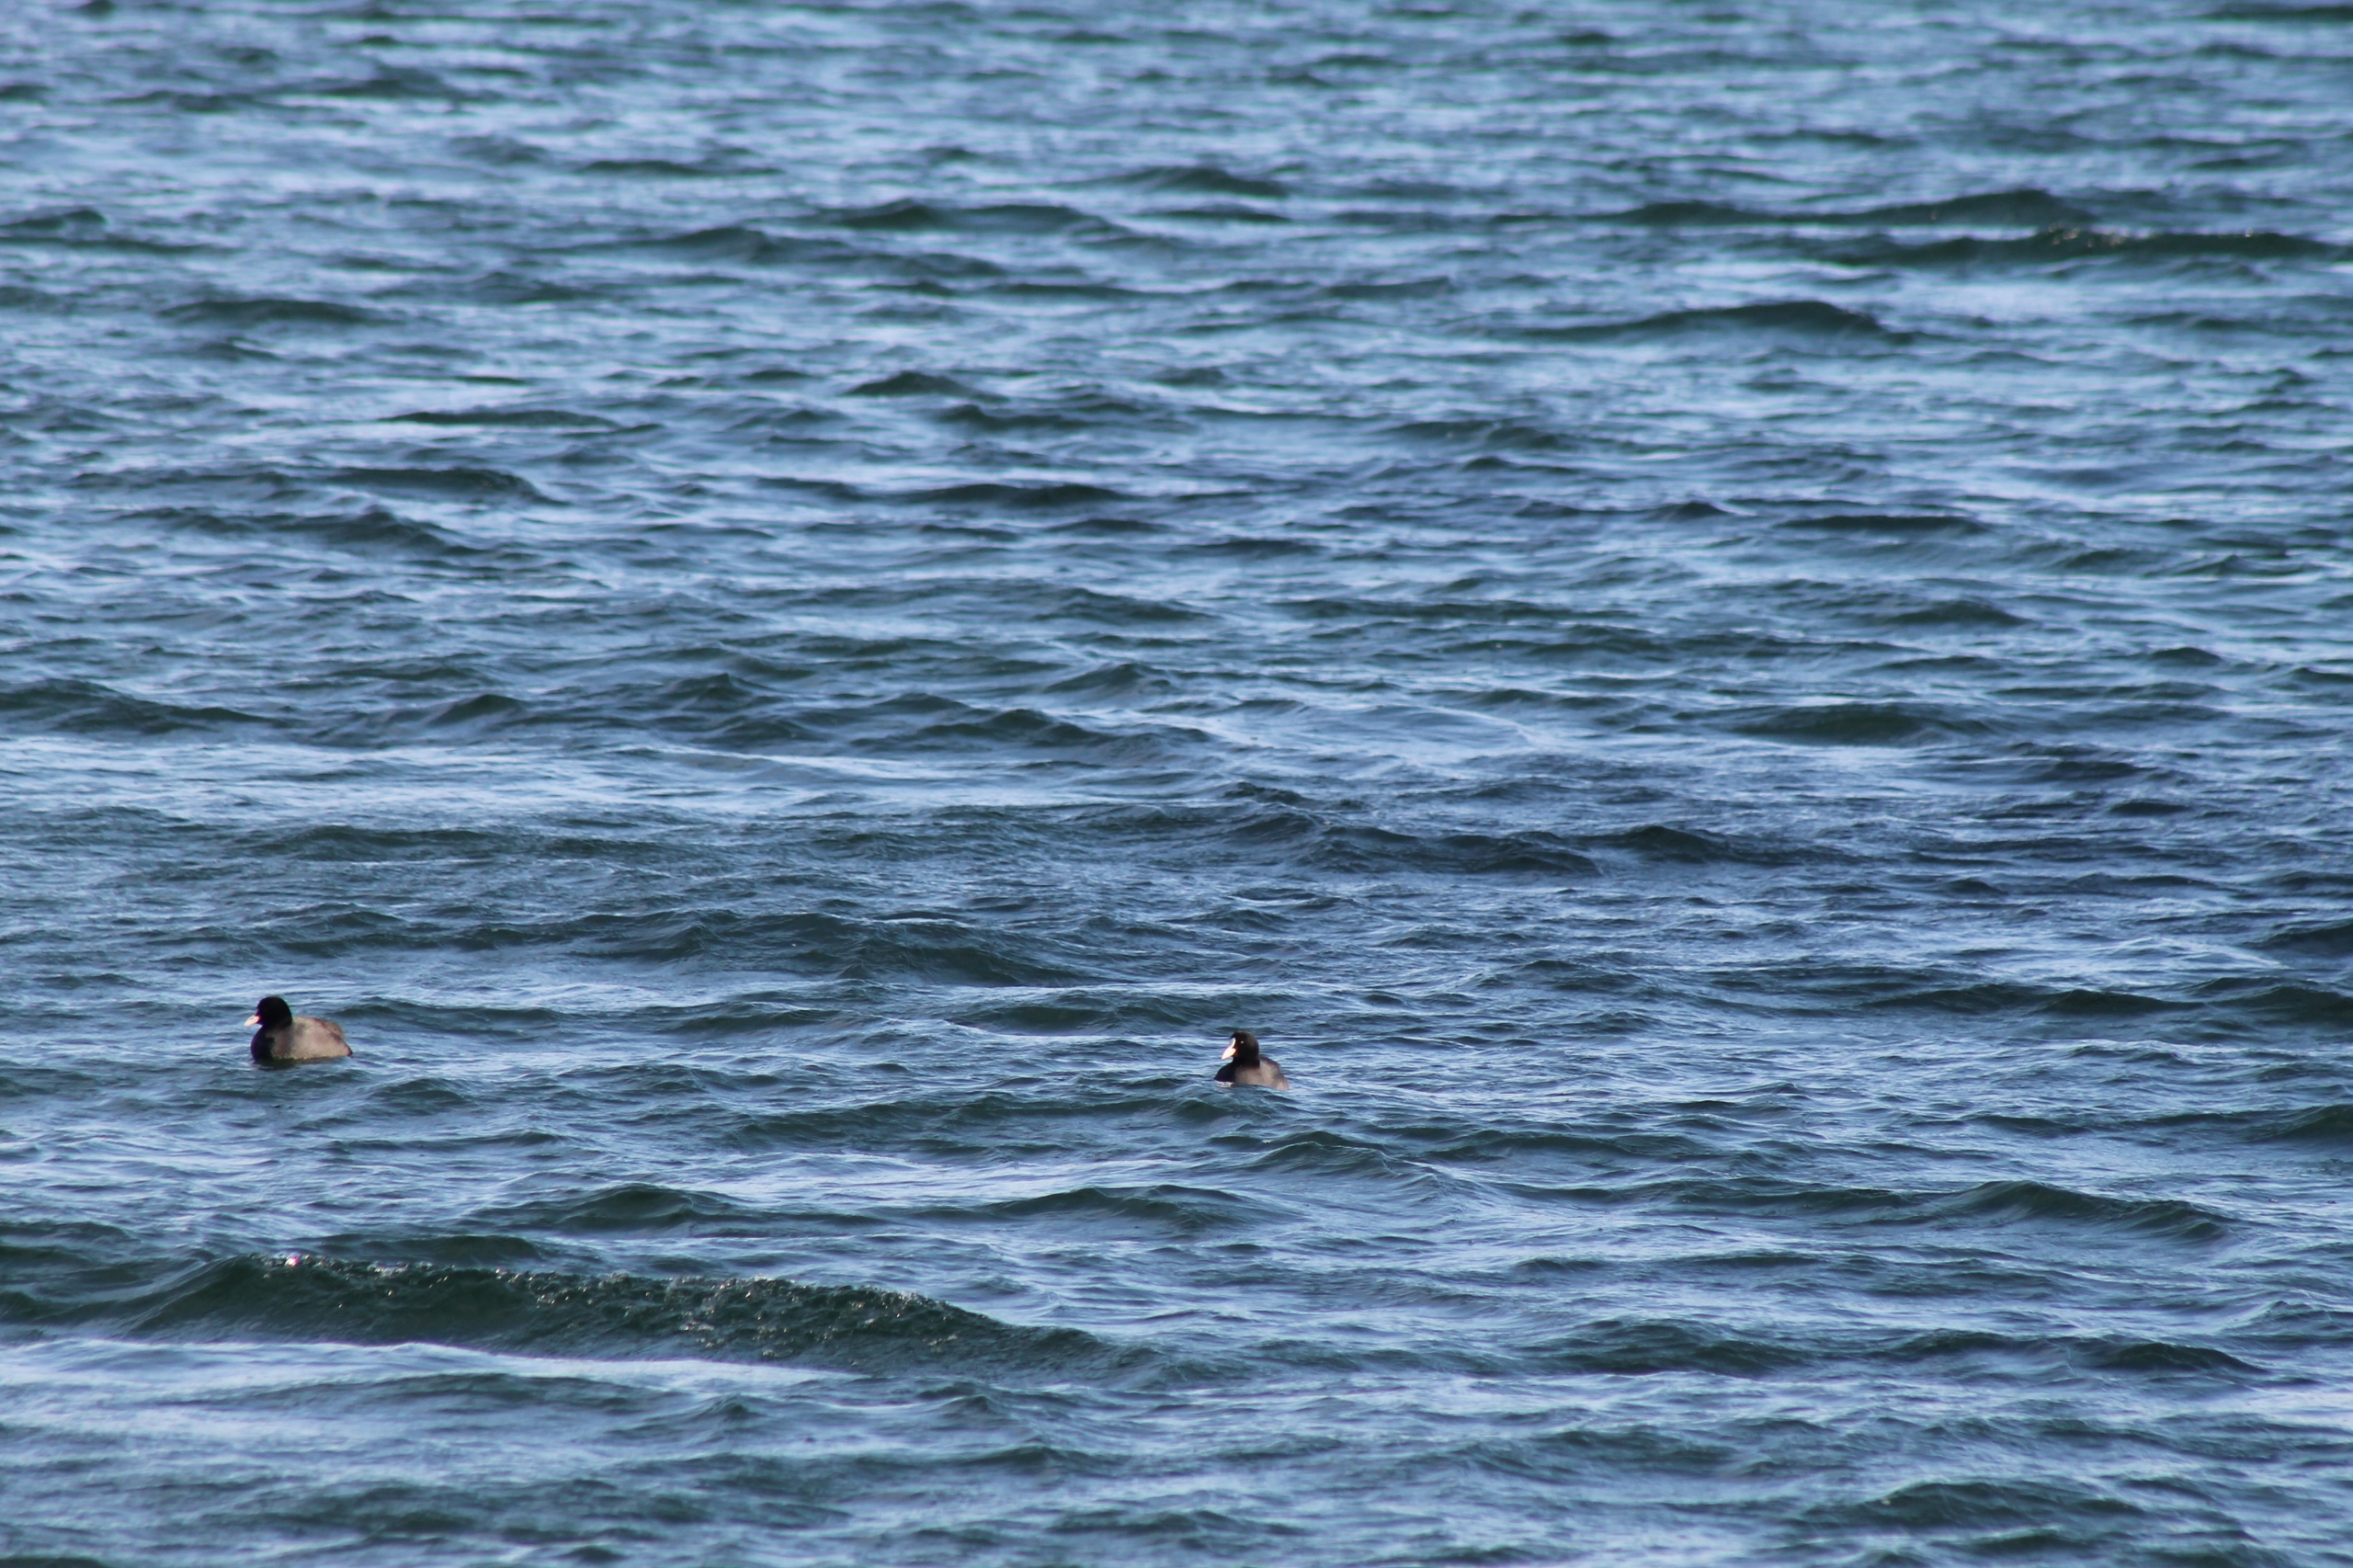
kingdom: Animalia
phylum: Chordata
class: Aves
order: Gruiformes
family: Rallidae
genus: Fulica
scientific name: Fulica atra
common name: Blishøne
